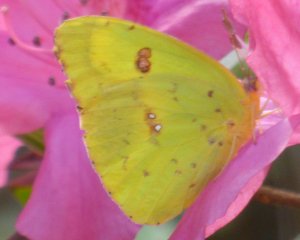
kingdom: Animalia
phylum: Arthropoda
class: Insecta
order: Lepidoptera
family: Pieridae
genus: Phoebis
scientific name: Phoebis sennae
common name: Cloudless Sulphur
